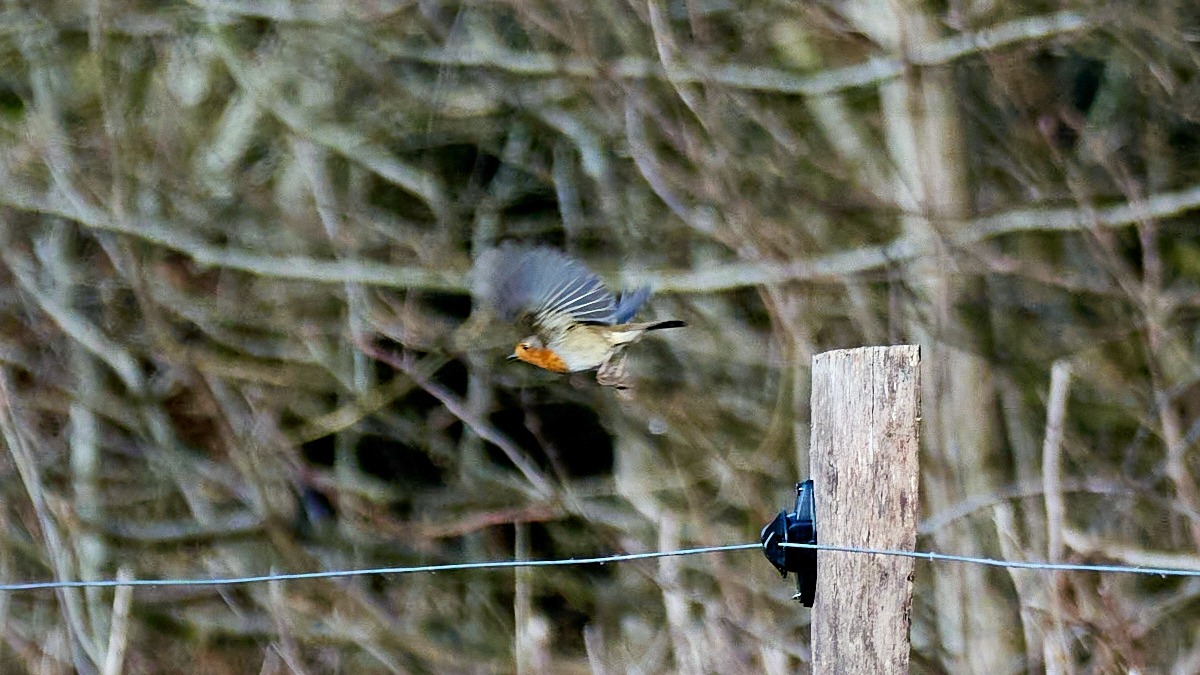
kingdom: Animalia
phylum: Chordata
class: Aves
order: Passeriformes
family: Muscicapidae
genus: Erithacus
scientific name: Erithacus rubecula
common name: Rødhals/rødkælk
